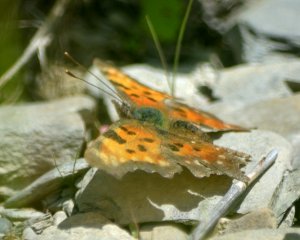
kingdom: Animalia
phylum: Arthropoda
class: Insecta
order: Lepidoptera
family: Nymphalidae
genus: Polygonia
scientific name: Polygonia faunus
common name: Green Comma
